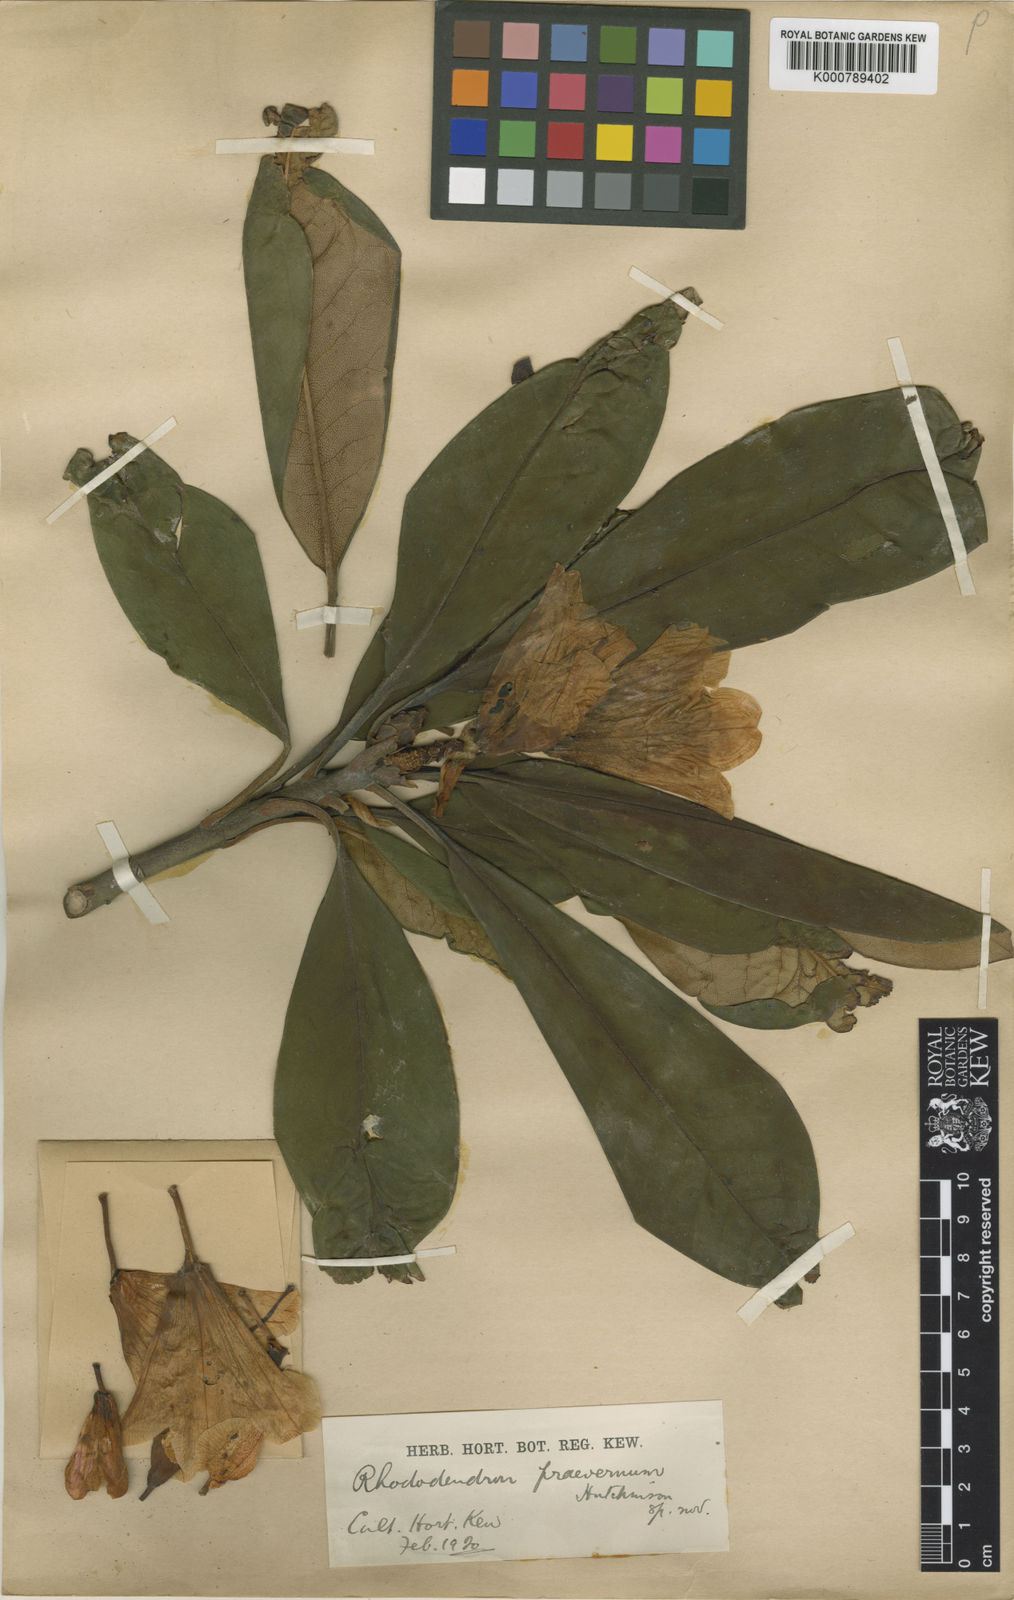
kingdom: Plantae
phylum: Tracheophyta
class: Magnoliopsida
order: Ericales
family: Ericaceae
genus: Rhododendron
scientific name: Rhododendron
